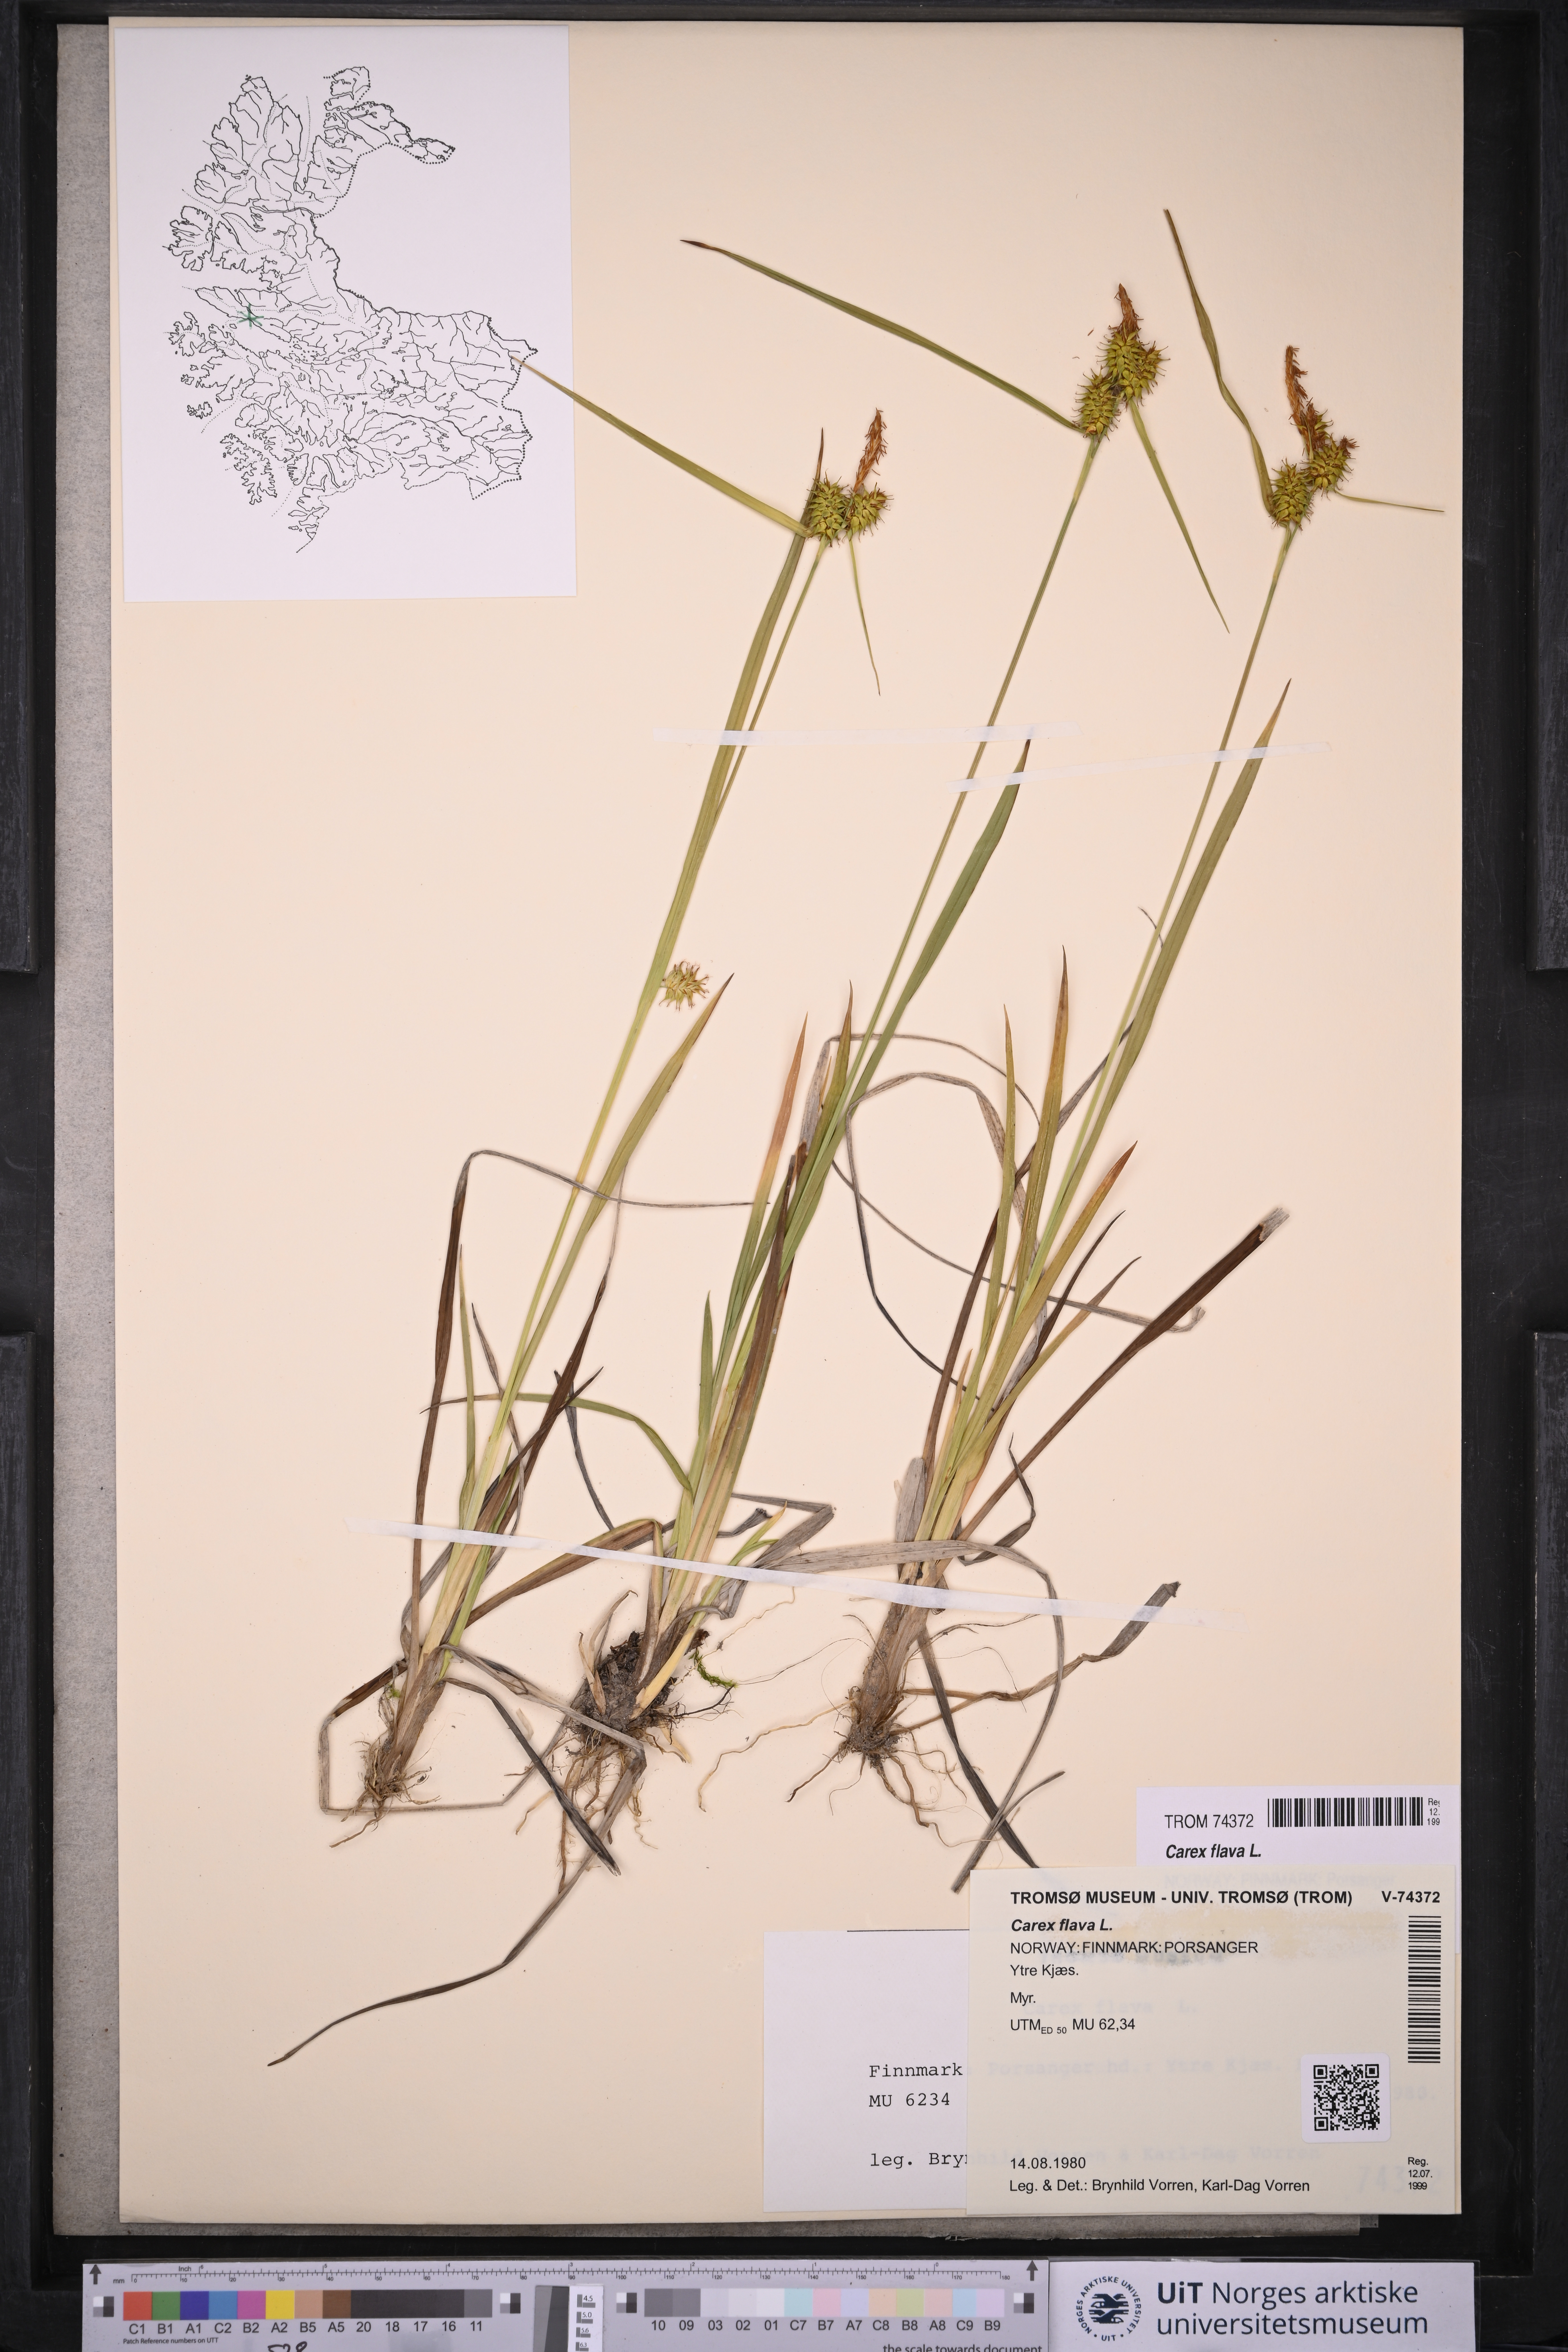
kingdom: Plantae
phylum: Tracheophyta
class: Liliopsida
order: Poales
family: Cyperaceae
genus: Carex
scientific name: Carex flava
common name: Large yellow-sedge
